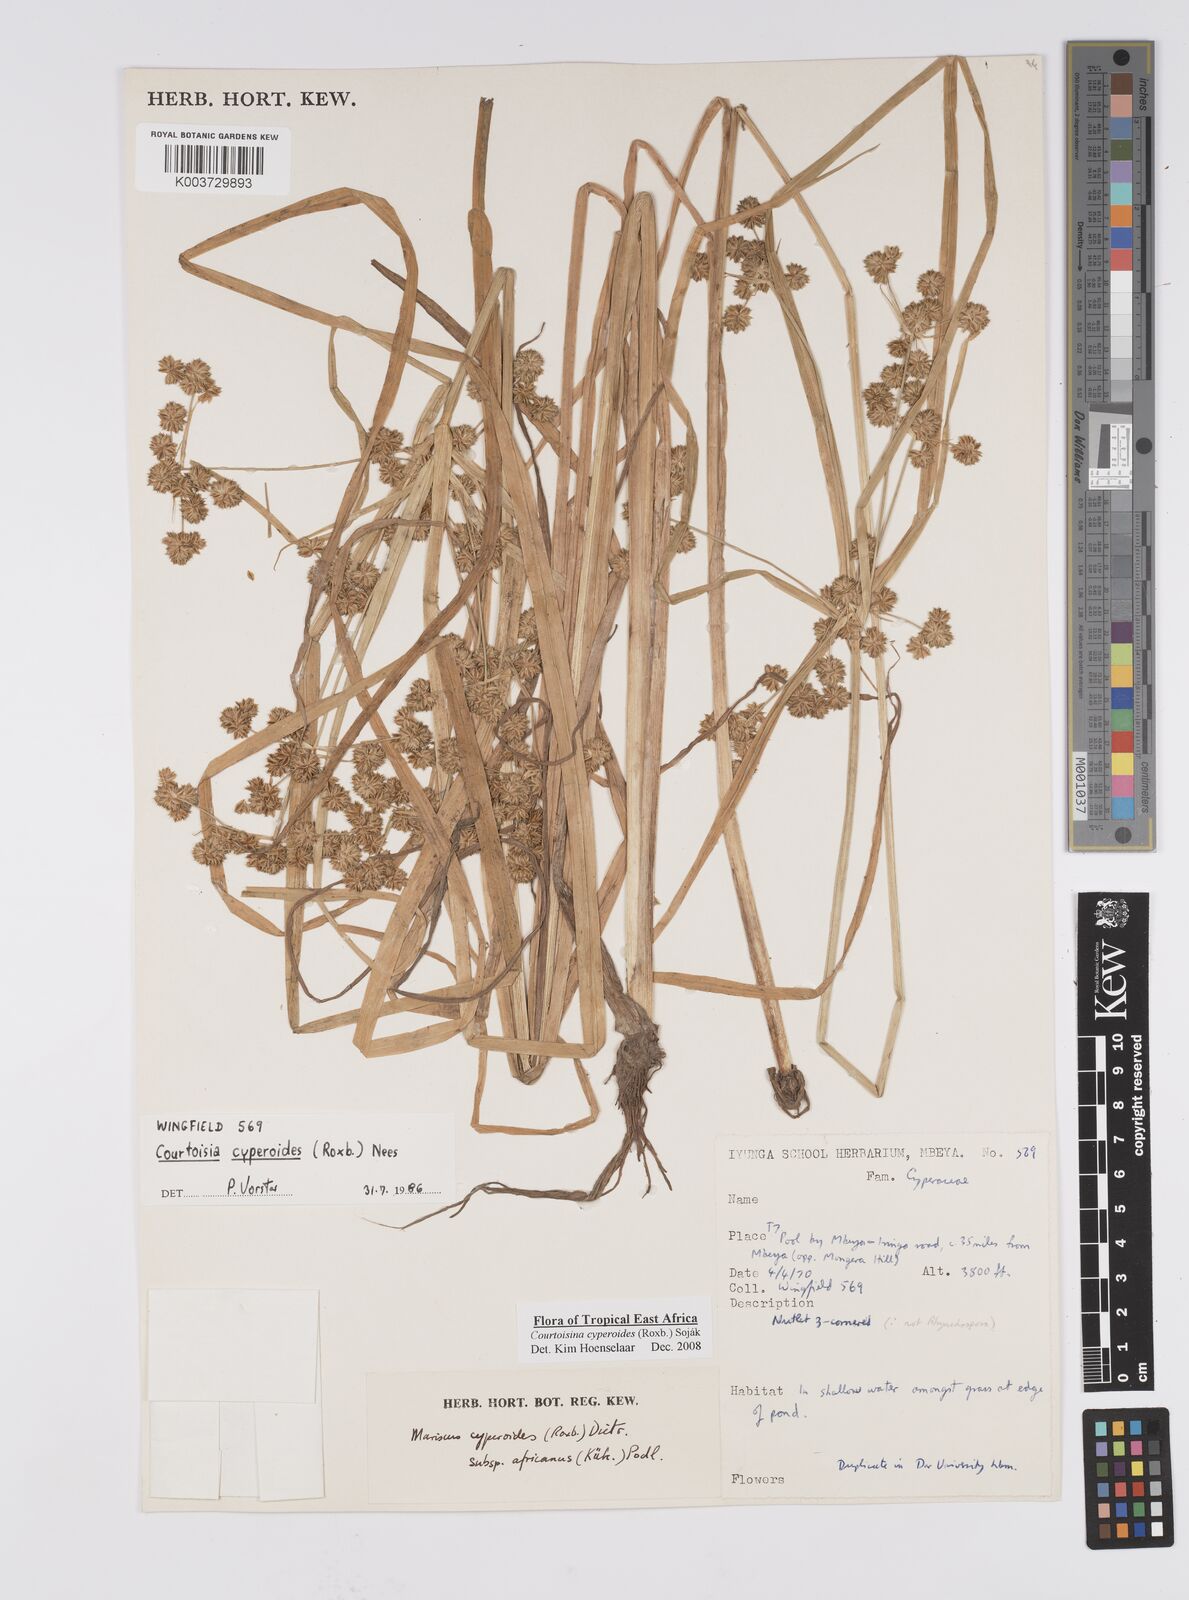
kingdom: Plantae
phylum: Tracheophyta
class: Liliopsida
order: Poales
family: Cyperaceae
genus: Cyperus
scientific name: Cyperus cyperoides
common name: Pacific island flat sedge
